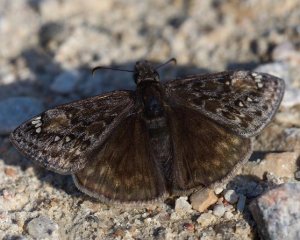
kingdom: Animalia
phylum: Arthropoda
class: Insecta
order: Lepidoptera
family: Hesperiidae
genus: Gesta
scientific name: Gesta
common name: Juvenal's Duskywing
